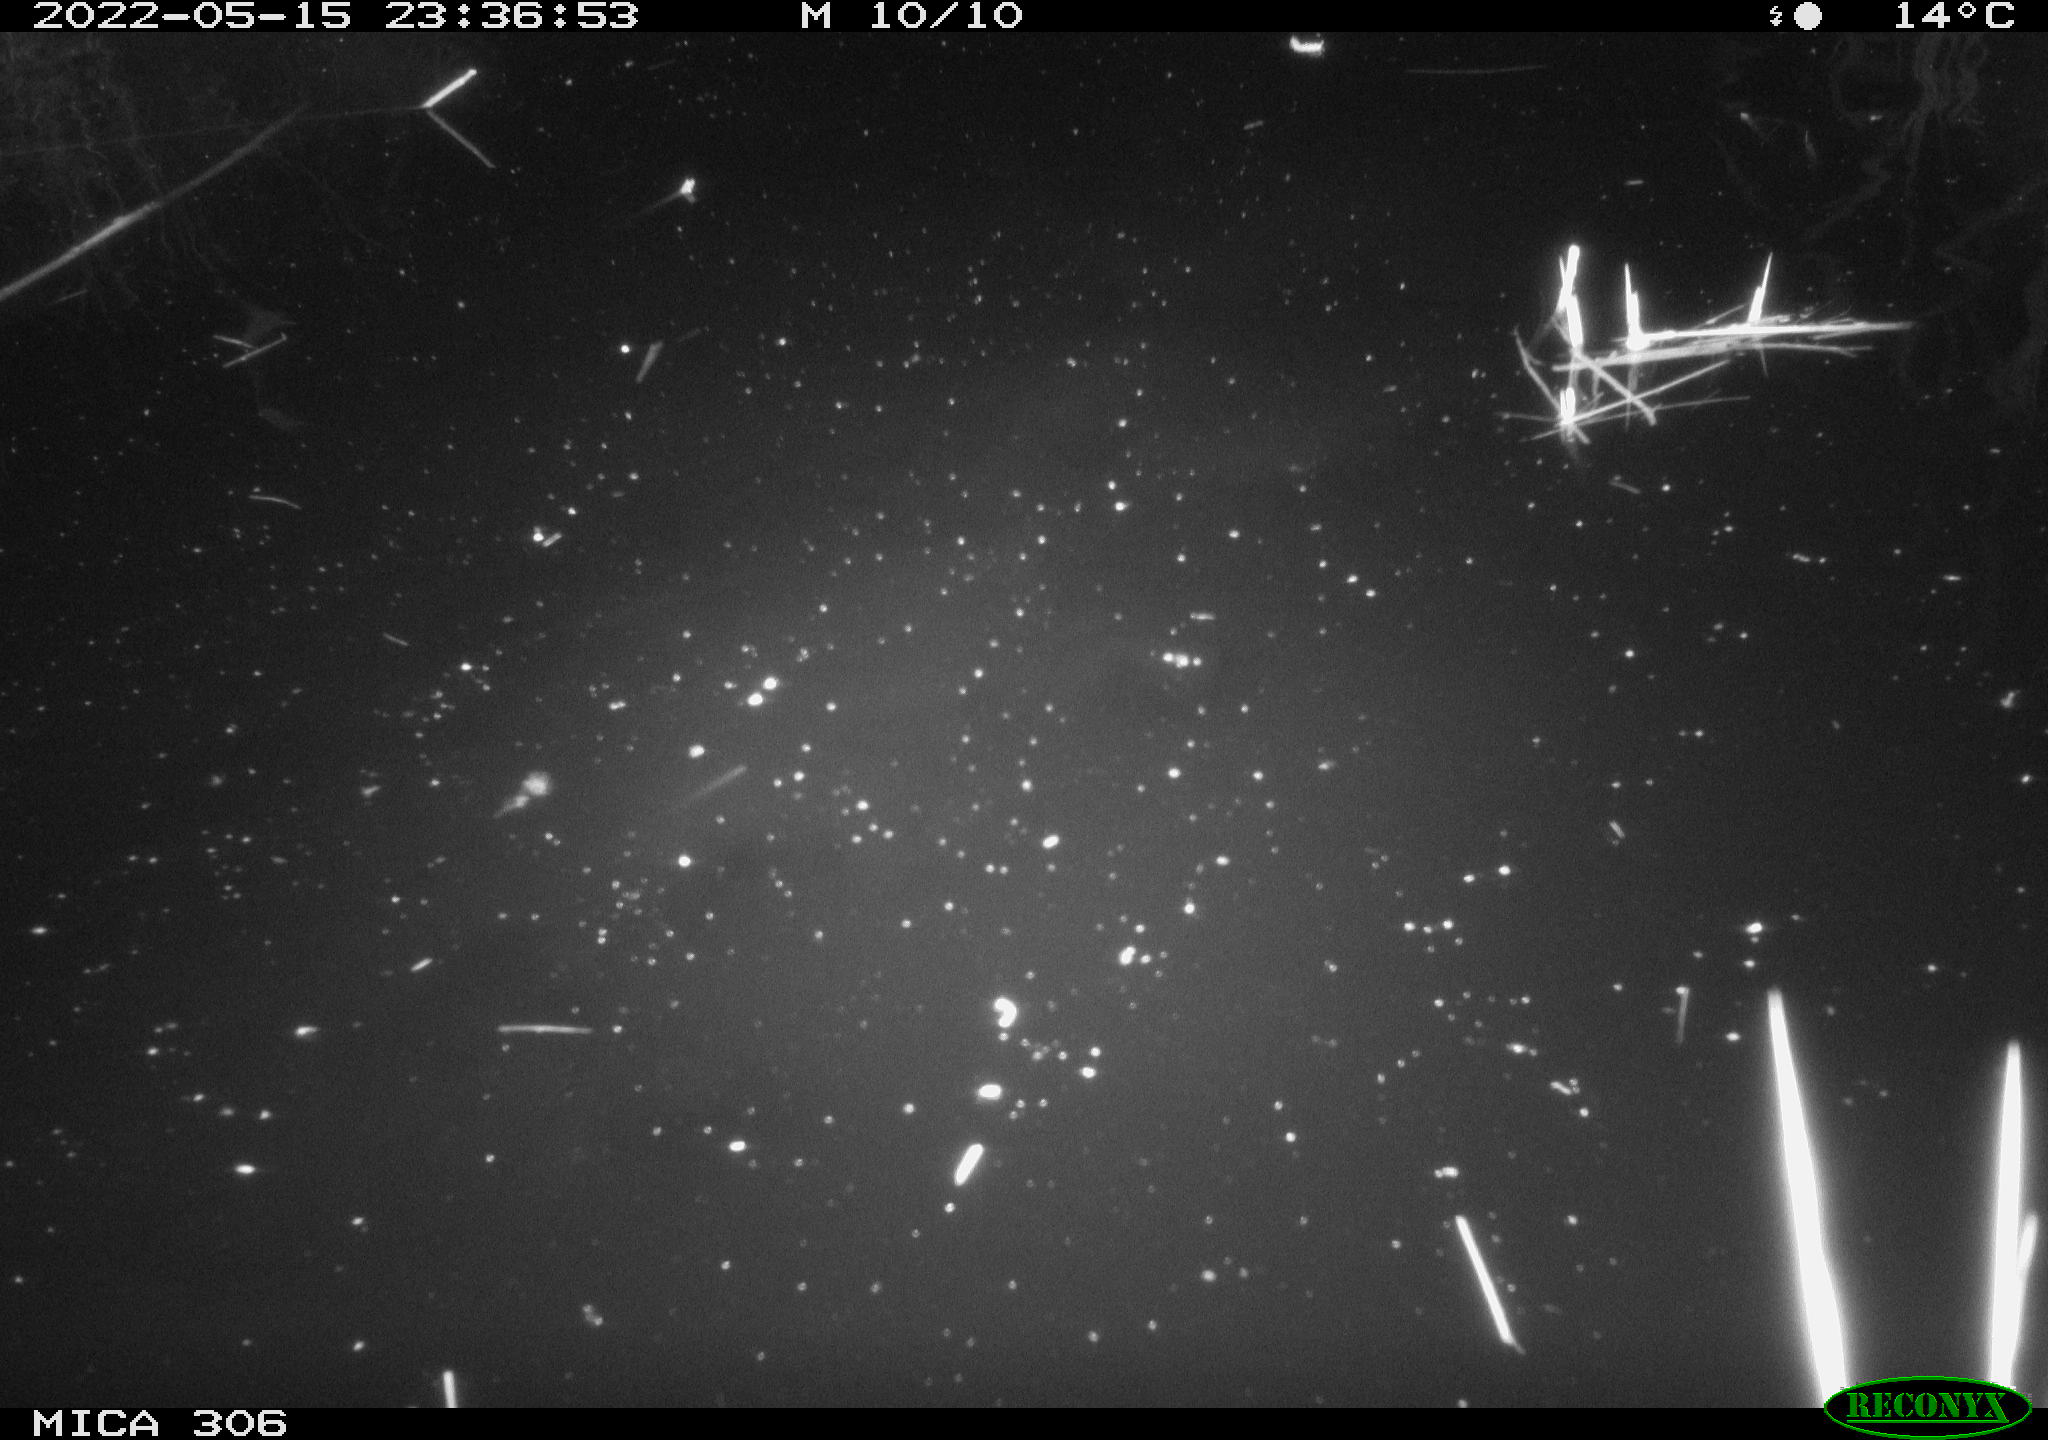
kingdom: Animalia
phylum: Chordata
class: Mammalia
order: Rodentia
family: Muridae
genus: Rattus
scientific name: Rattus norvegicus
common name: Brown rat
